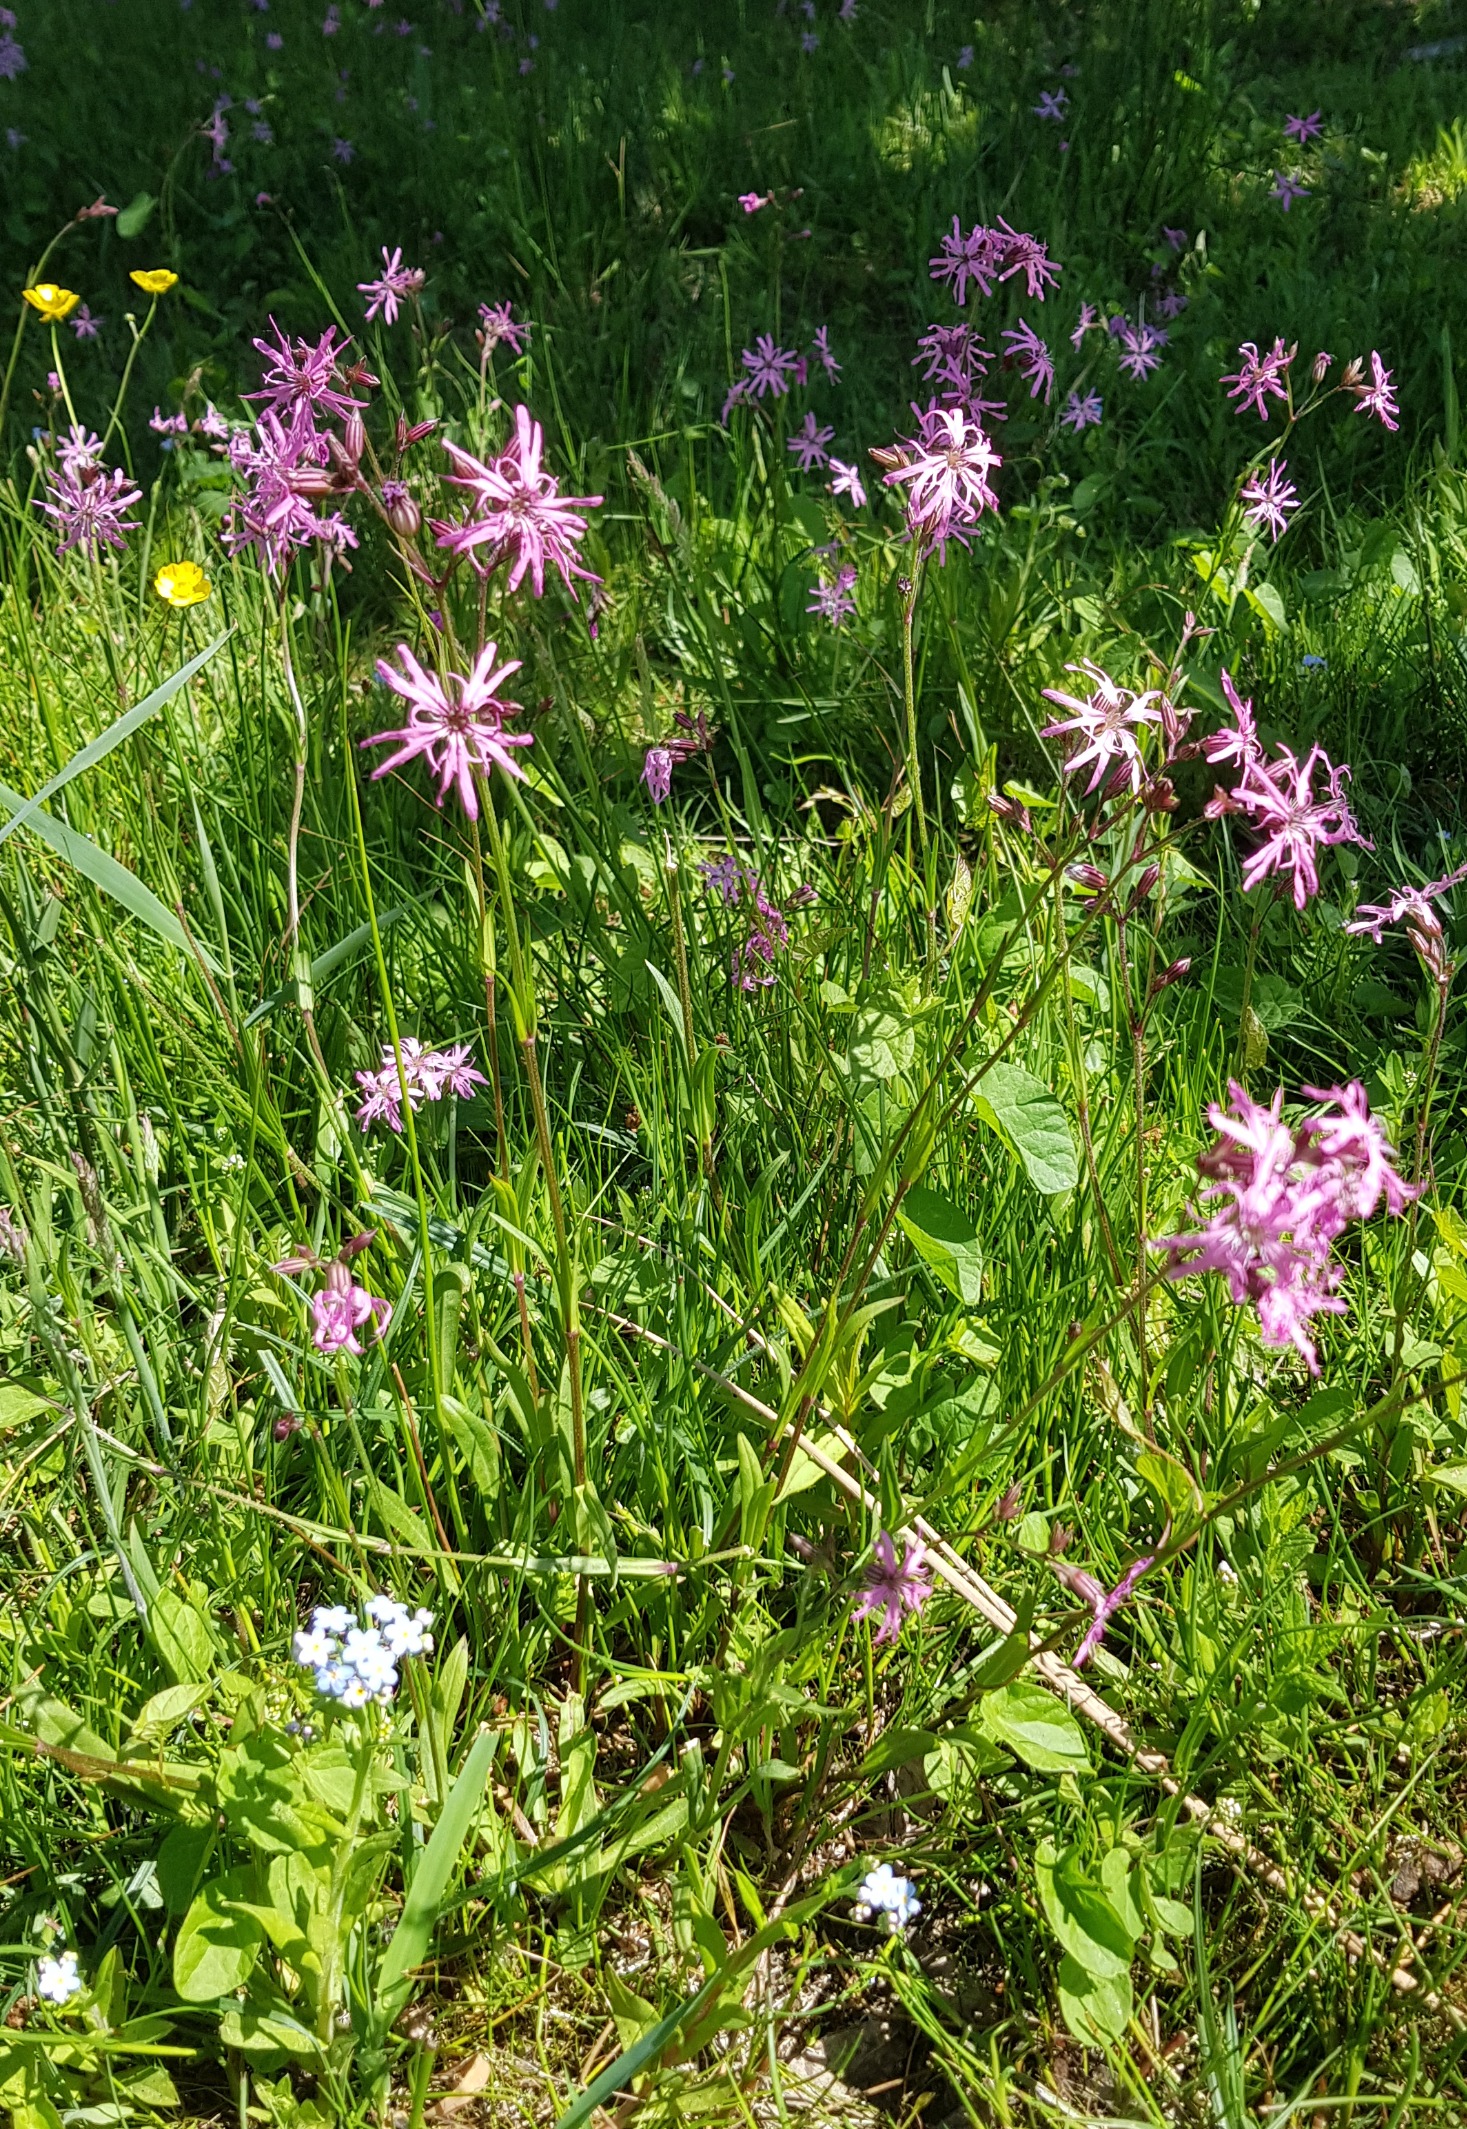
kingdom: Plantae
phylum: Tracheophyta
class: Magnoliopsida
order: Caryophyllales
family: Caryophyllaceae
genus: Silene
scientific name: Silene flos-cuculi
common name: Trævlekrone
